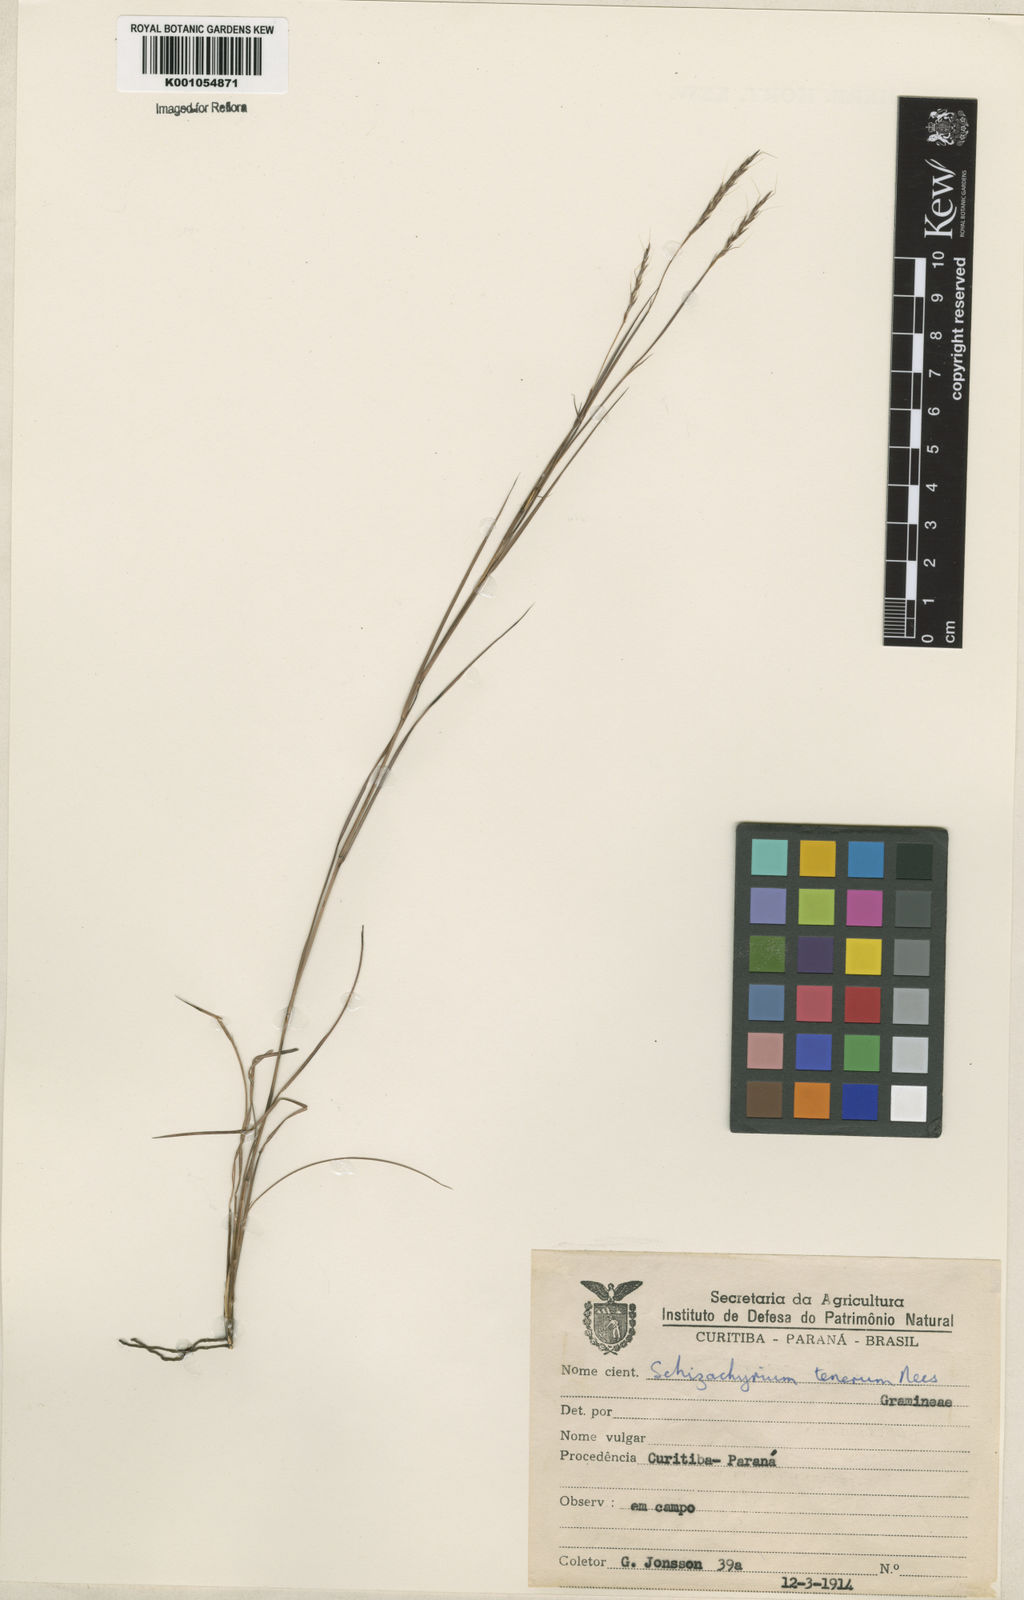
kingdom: Plantae
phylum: Tracheophyta
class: Liliopsida
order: Poales
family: Poaceae
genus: Andropogon
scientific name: Andropogon tener
